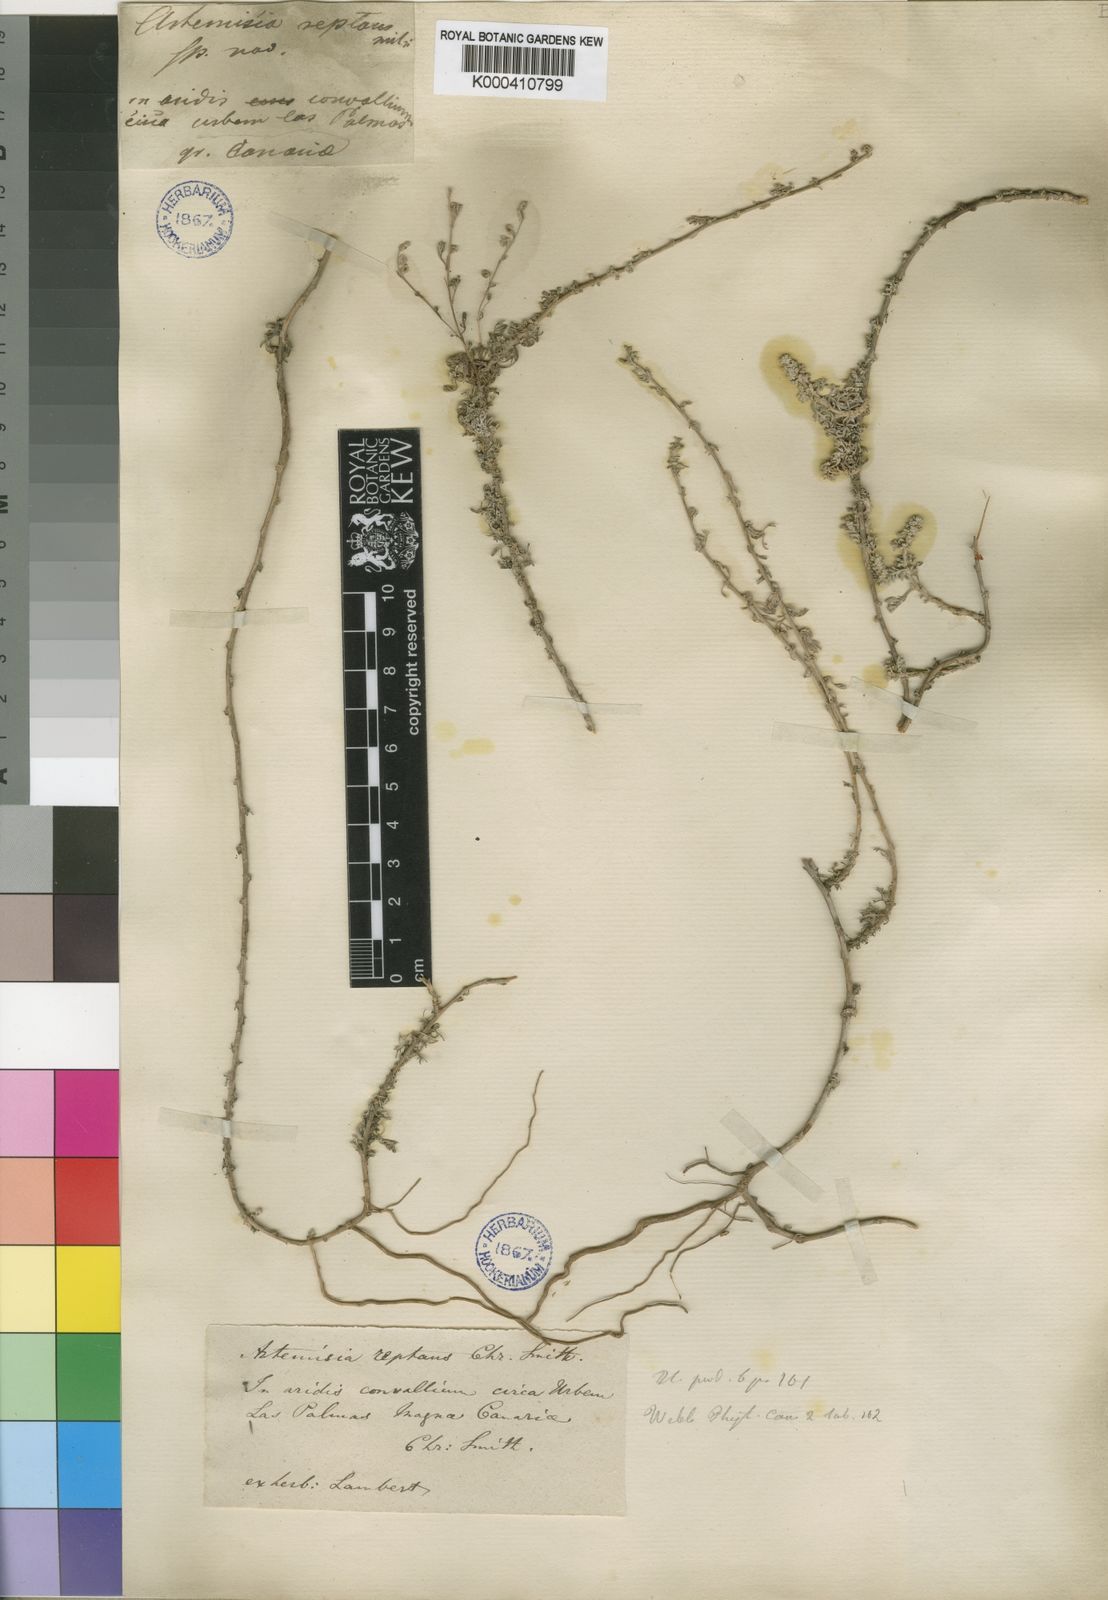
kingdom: Plantae
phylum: Tracheophyta
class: Magnoliopsida
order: Asterales
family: Asteraceae
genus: Artemisia
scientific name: Artemisia
